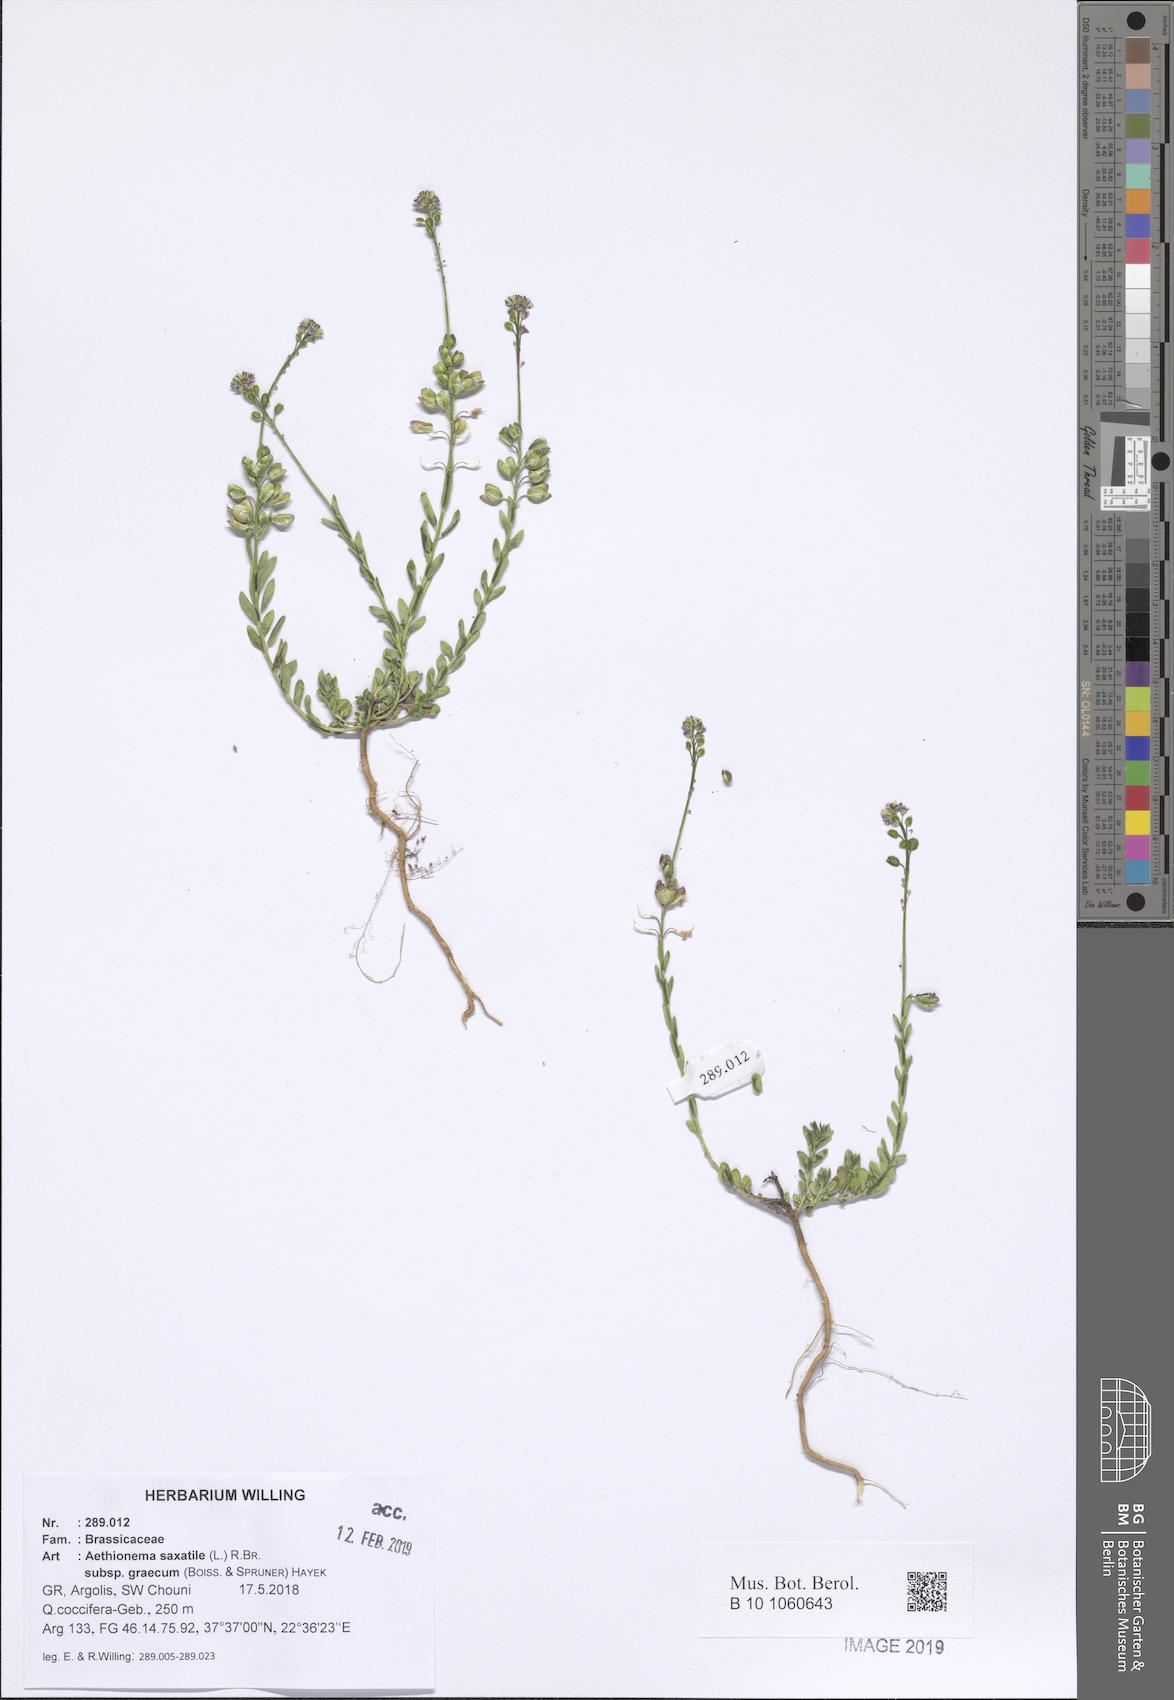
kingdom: Plantae
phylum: Tracheophyta
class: Magnoliopsida
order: Brassicales
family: Brassicaceae
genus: Aethionema
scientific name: Aethionema saxatile
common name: Burnt candytuft
